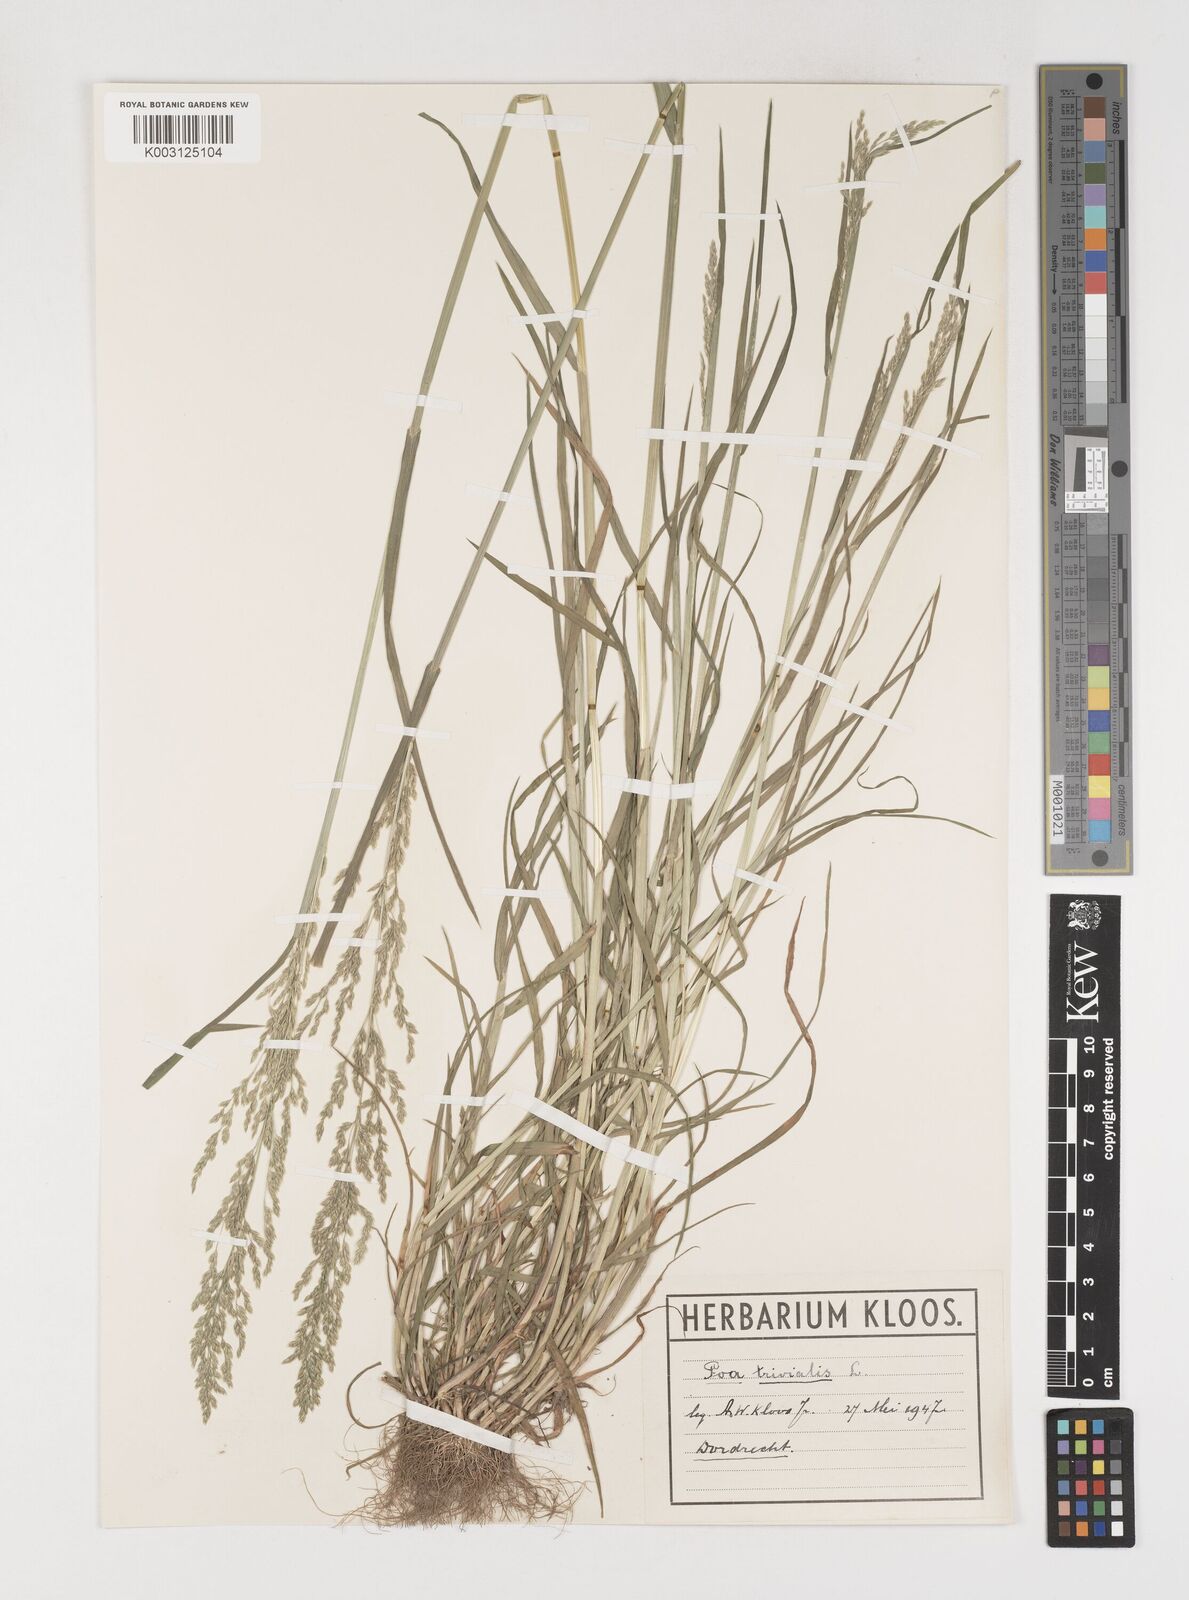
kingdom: Plantae
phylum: Tracheophyta
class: Liliopsida
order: Poales
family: Poaceae
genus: Poa
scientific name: Poa trivialis
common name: Rough bluegrass
